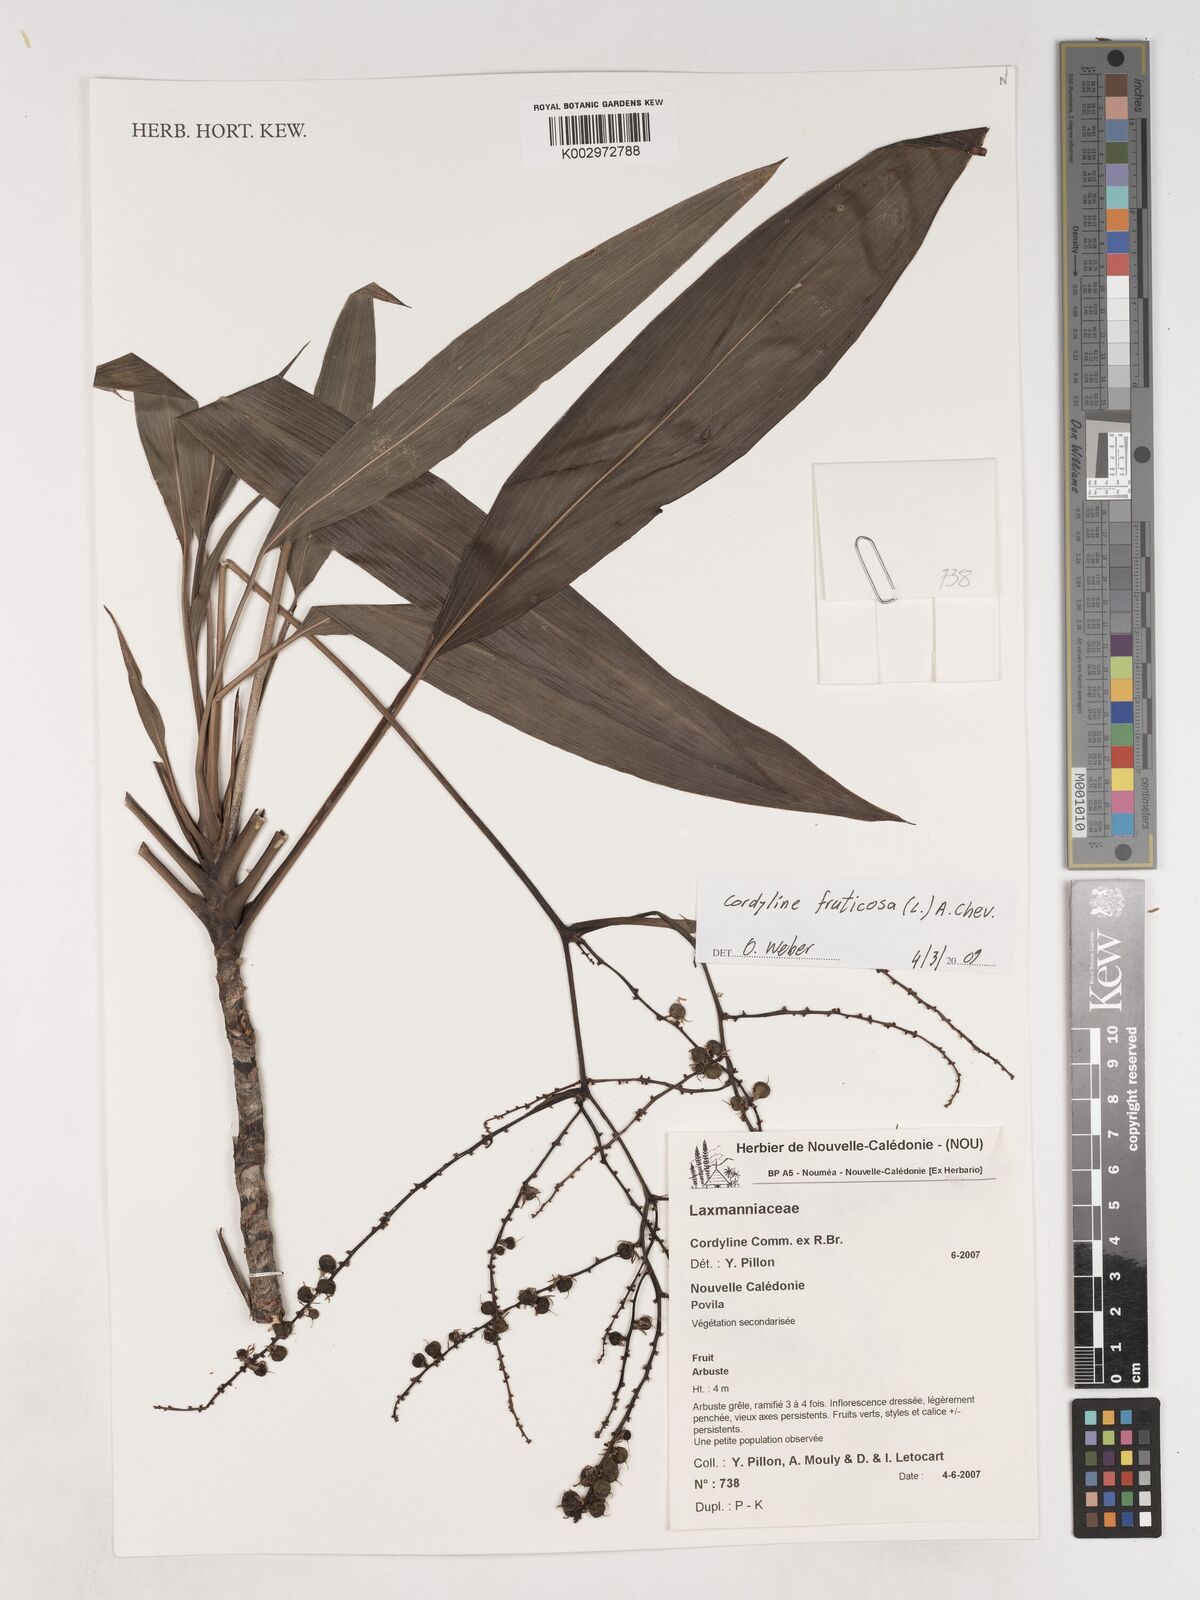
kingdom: Plantae
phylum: Tracheophyta
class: Liliopsida
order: Asparagales
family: Asparagaceae
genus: Cordyline
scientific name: Cordyline fruticosa
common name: Good-luck-plant
